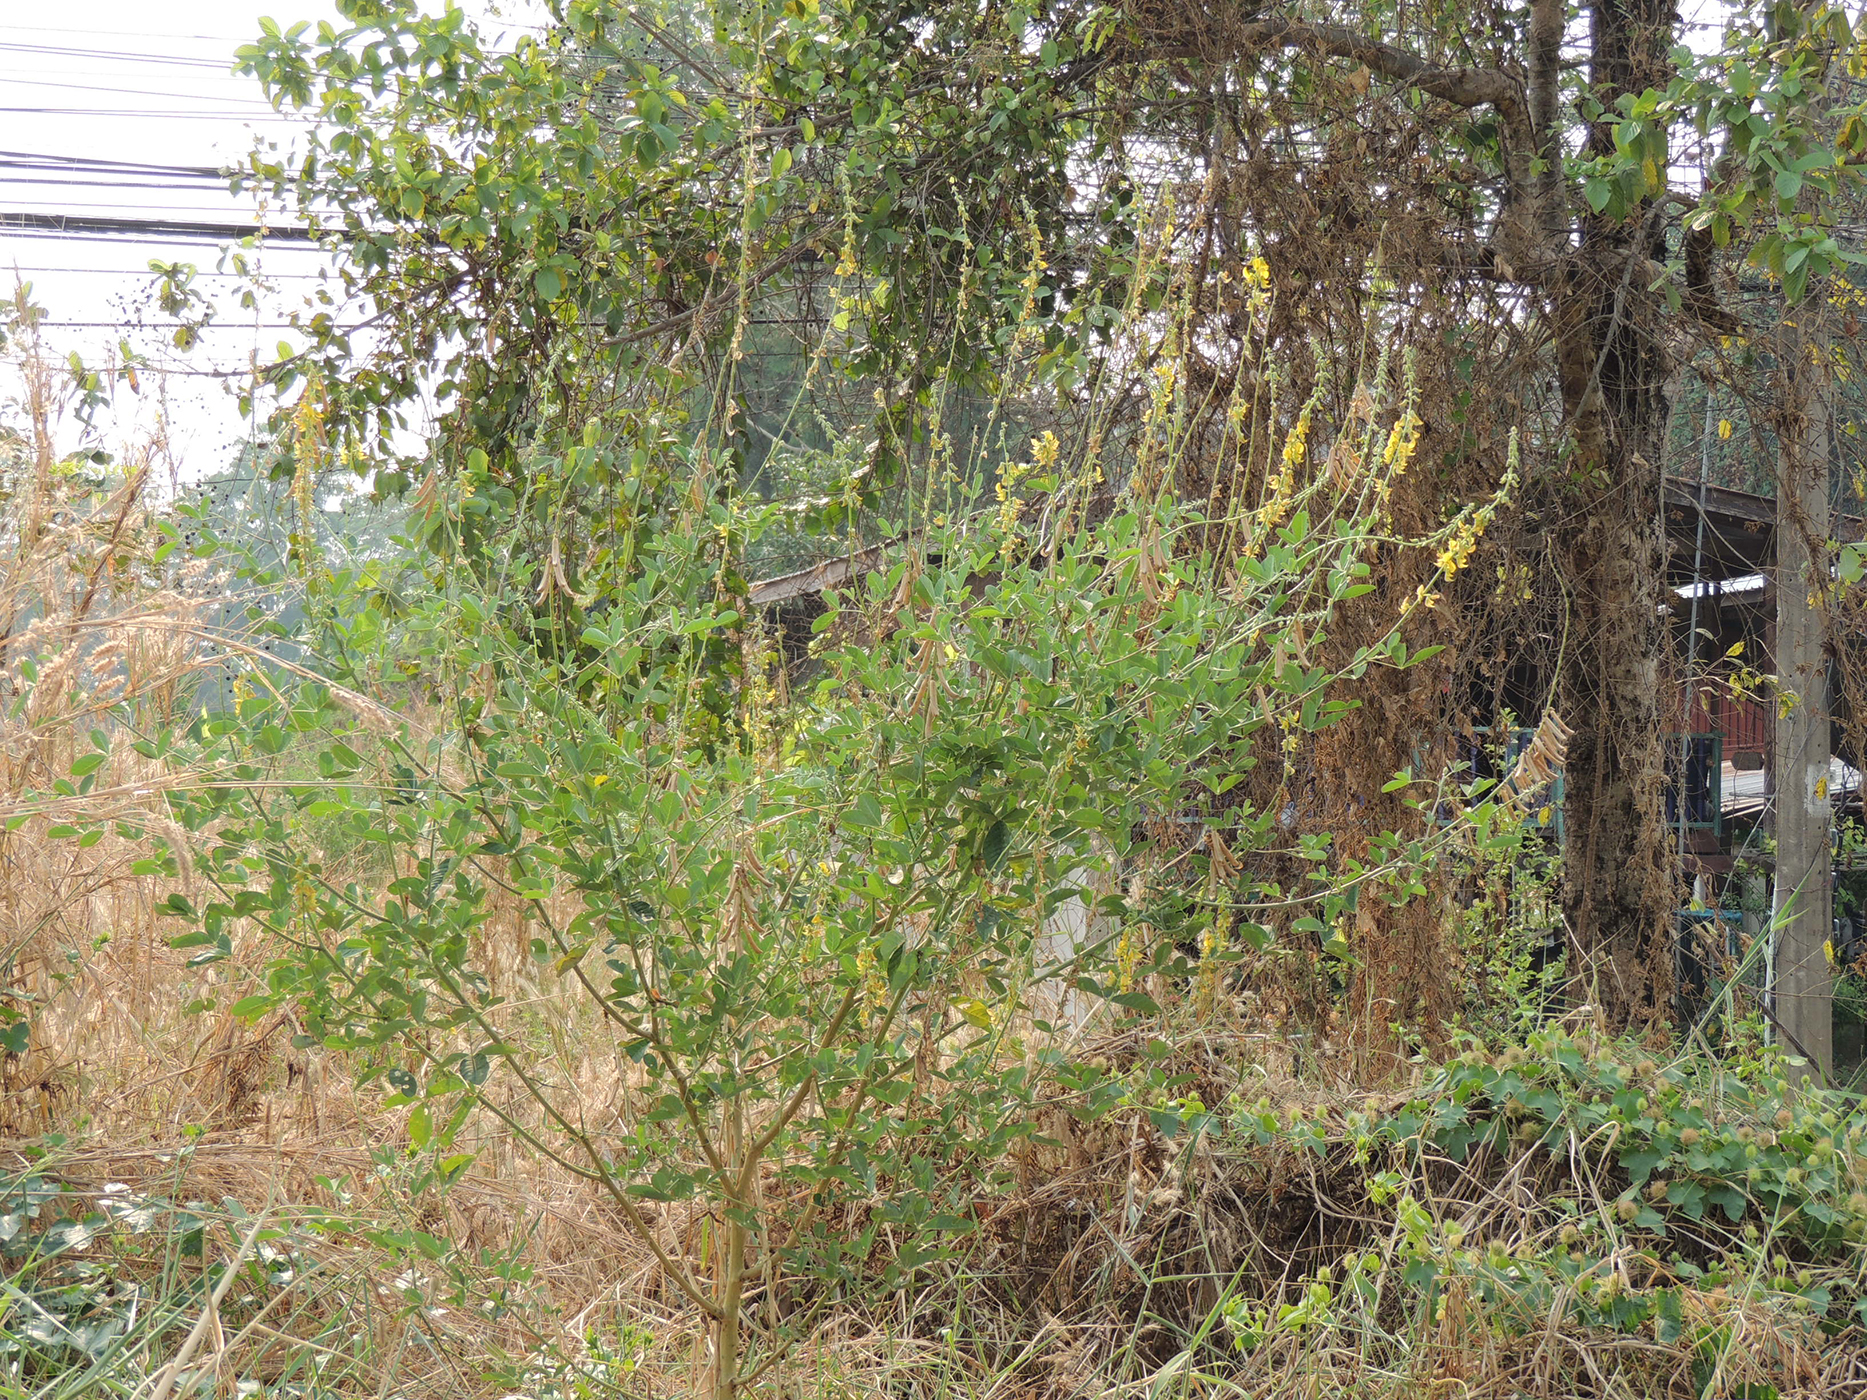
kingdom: Plantae
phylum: Tracheophyta
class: Magnoliopsida
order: Fabales
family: Fabaceae
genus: Crotalaria
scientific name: Crotalaria pallida
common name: Smooth rattlebox
